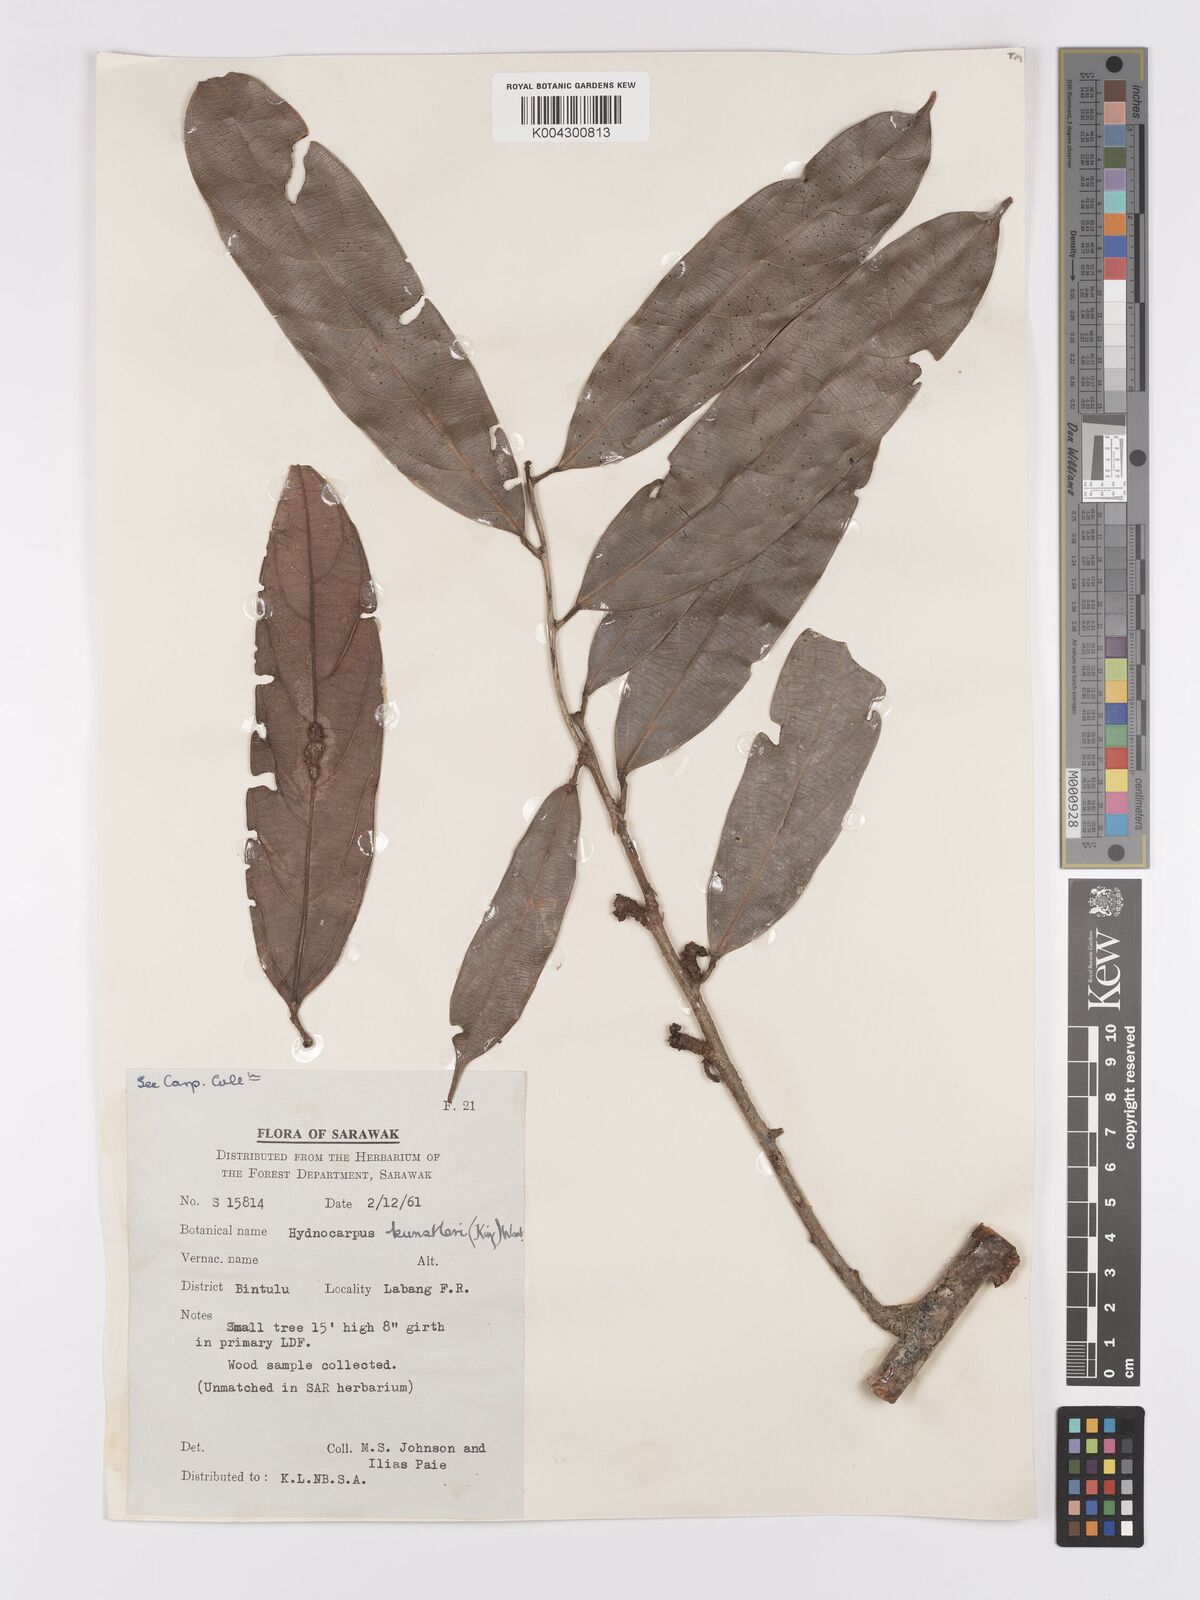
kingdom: Plantae
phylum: Tracheophyta
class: Magnoliopsida
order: Malpighiales
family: Achariaceae
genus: Hydnocarpus
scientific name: Hydnocarpus kunstleri
